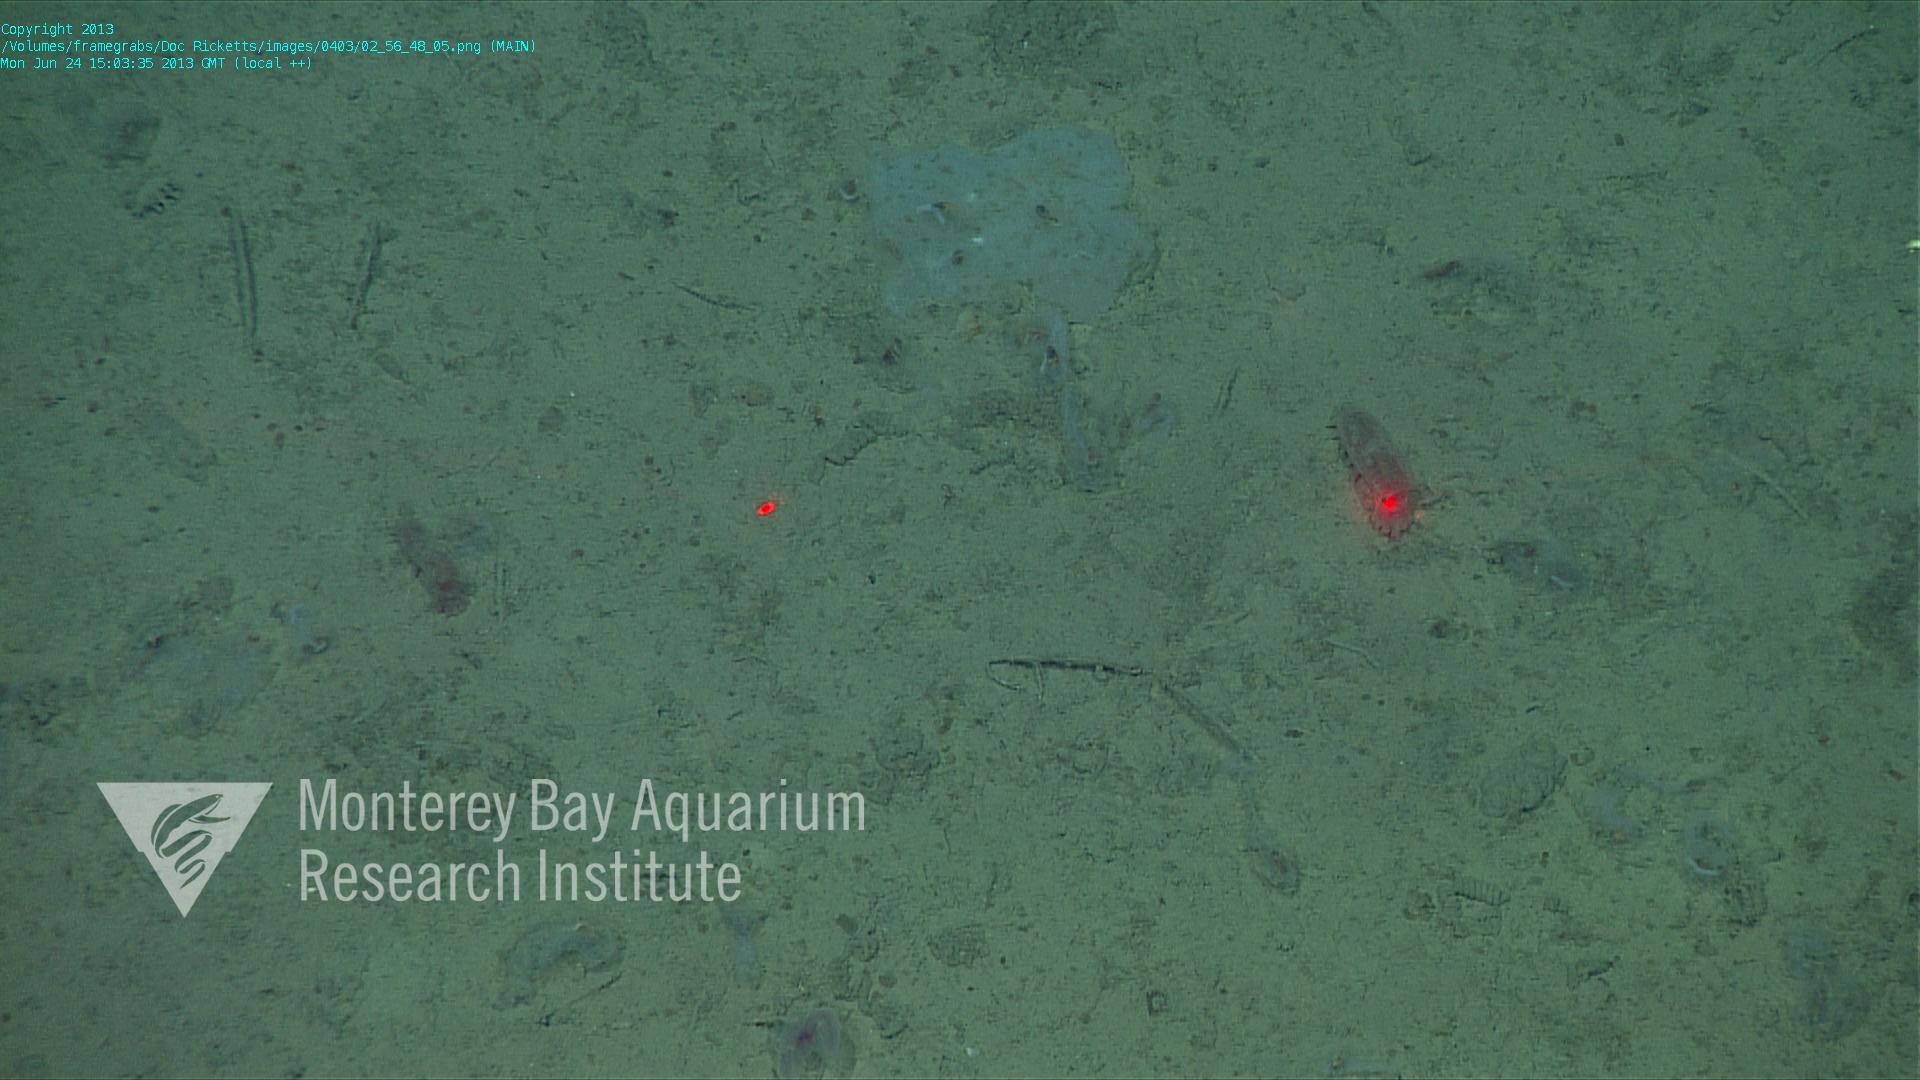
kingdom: Animalia
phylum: Porifera
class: Hexactinellida
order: Lyssacinosida
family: Euplectellidae
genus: Docosaccus
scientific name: Docosaccus maculatus
